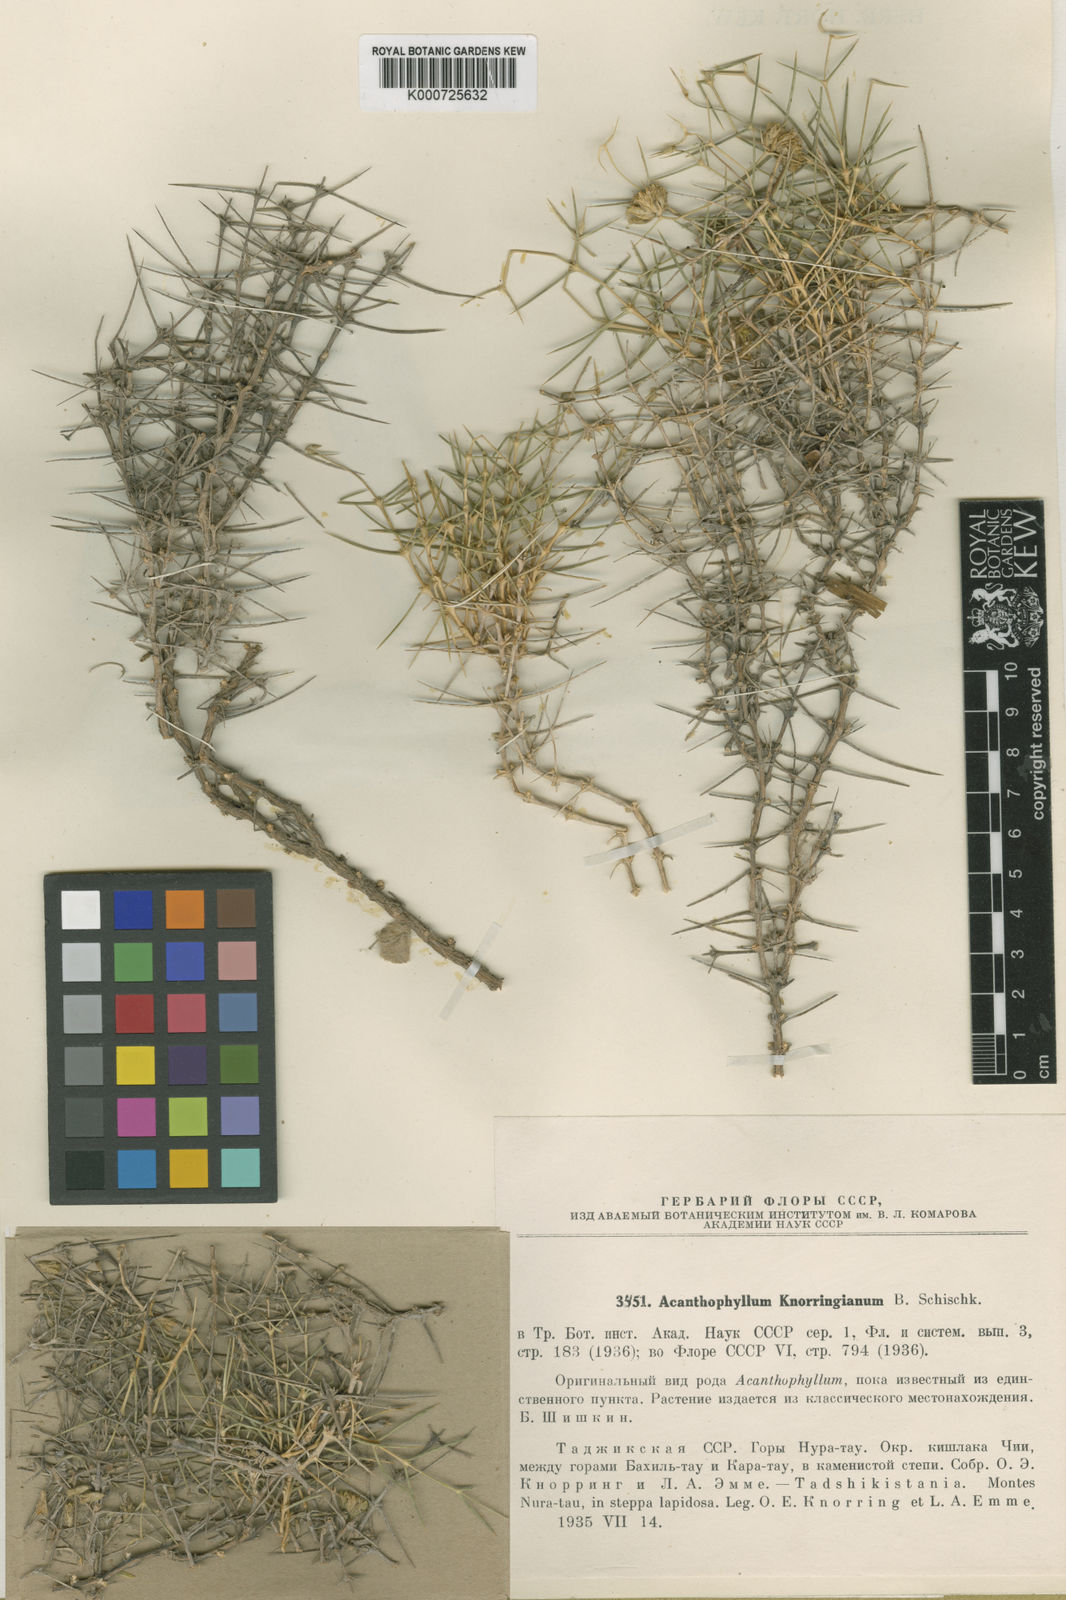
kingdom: Plantae
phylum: Tracheophyta
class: Magnoliopsida
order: Caryophyllales
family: Caryophyllaceae
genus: Acanthophyllum
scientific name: Acanthophyllum knorringianum
